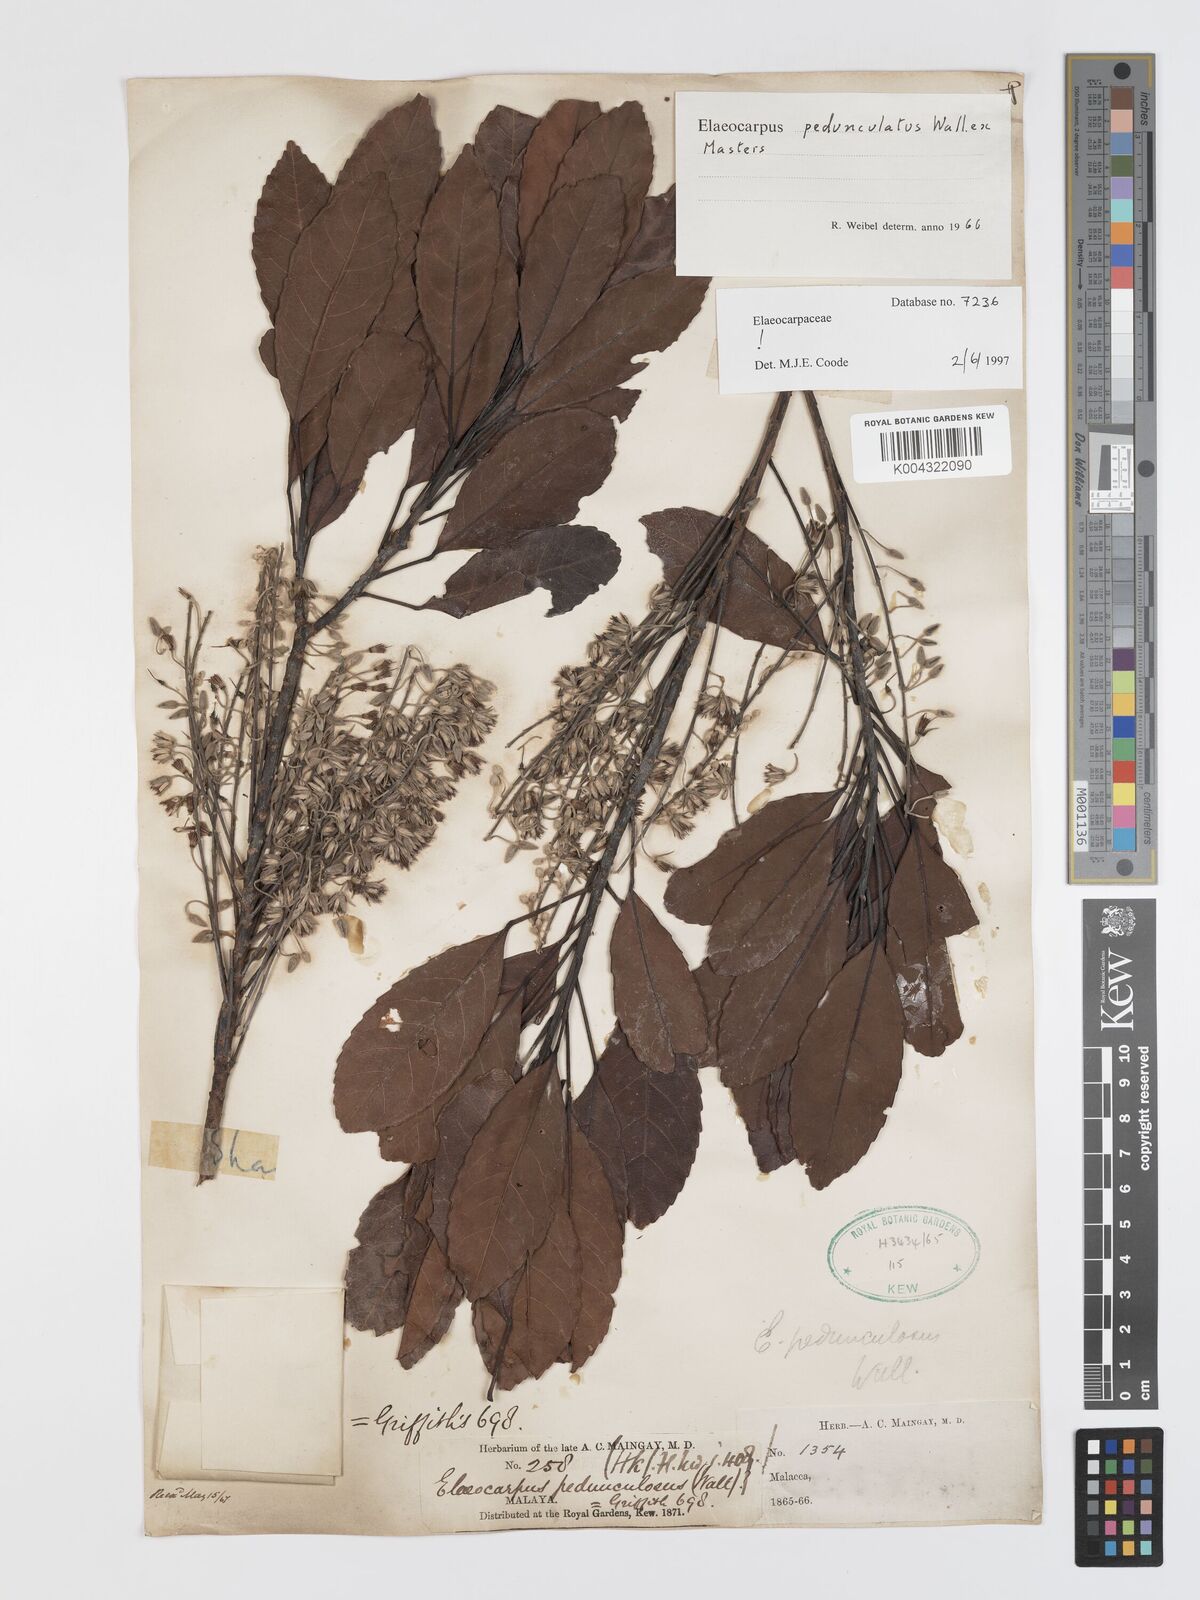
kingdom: Plantae
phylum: Tracheophyta
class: Magnoliopsida
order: Oxalidales
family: Elaeocarpaceae
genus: Elaeocarpus
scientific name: Elaeocarpus pedunculatus
